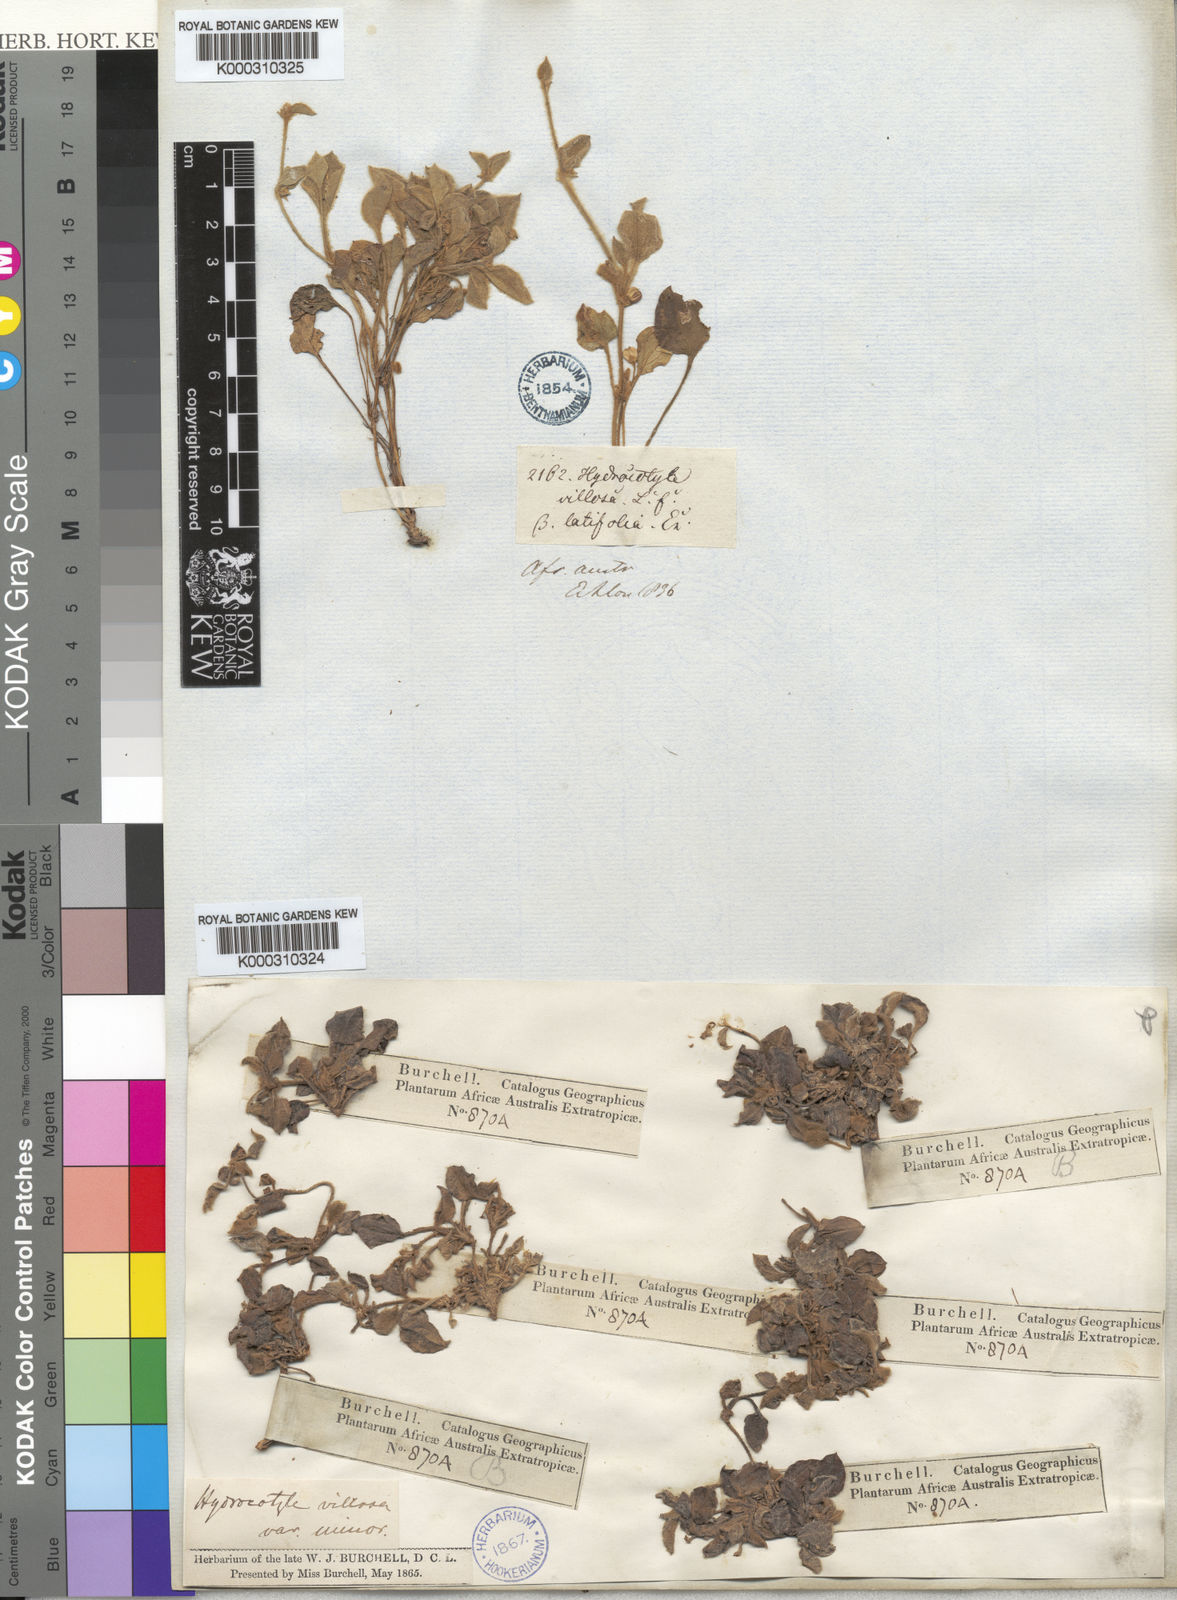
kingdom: Plantae
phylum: Tracheophyta
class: Magnoliopsida
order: Apiales
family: Apiaceae
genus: Centella
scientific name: Centella villosa
